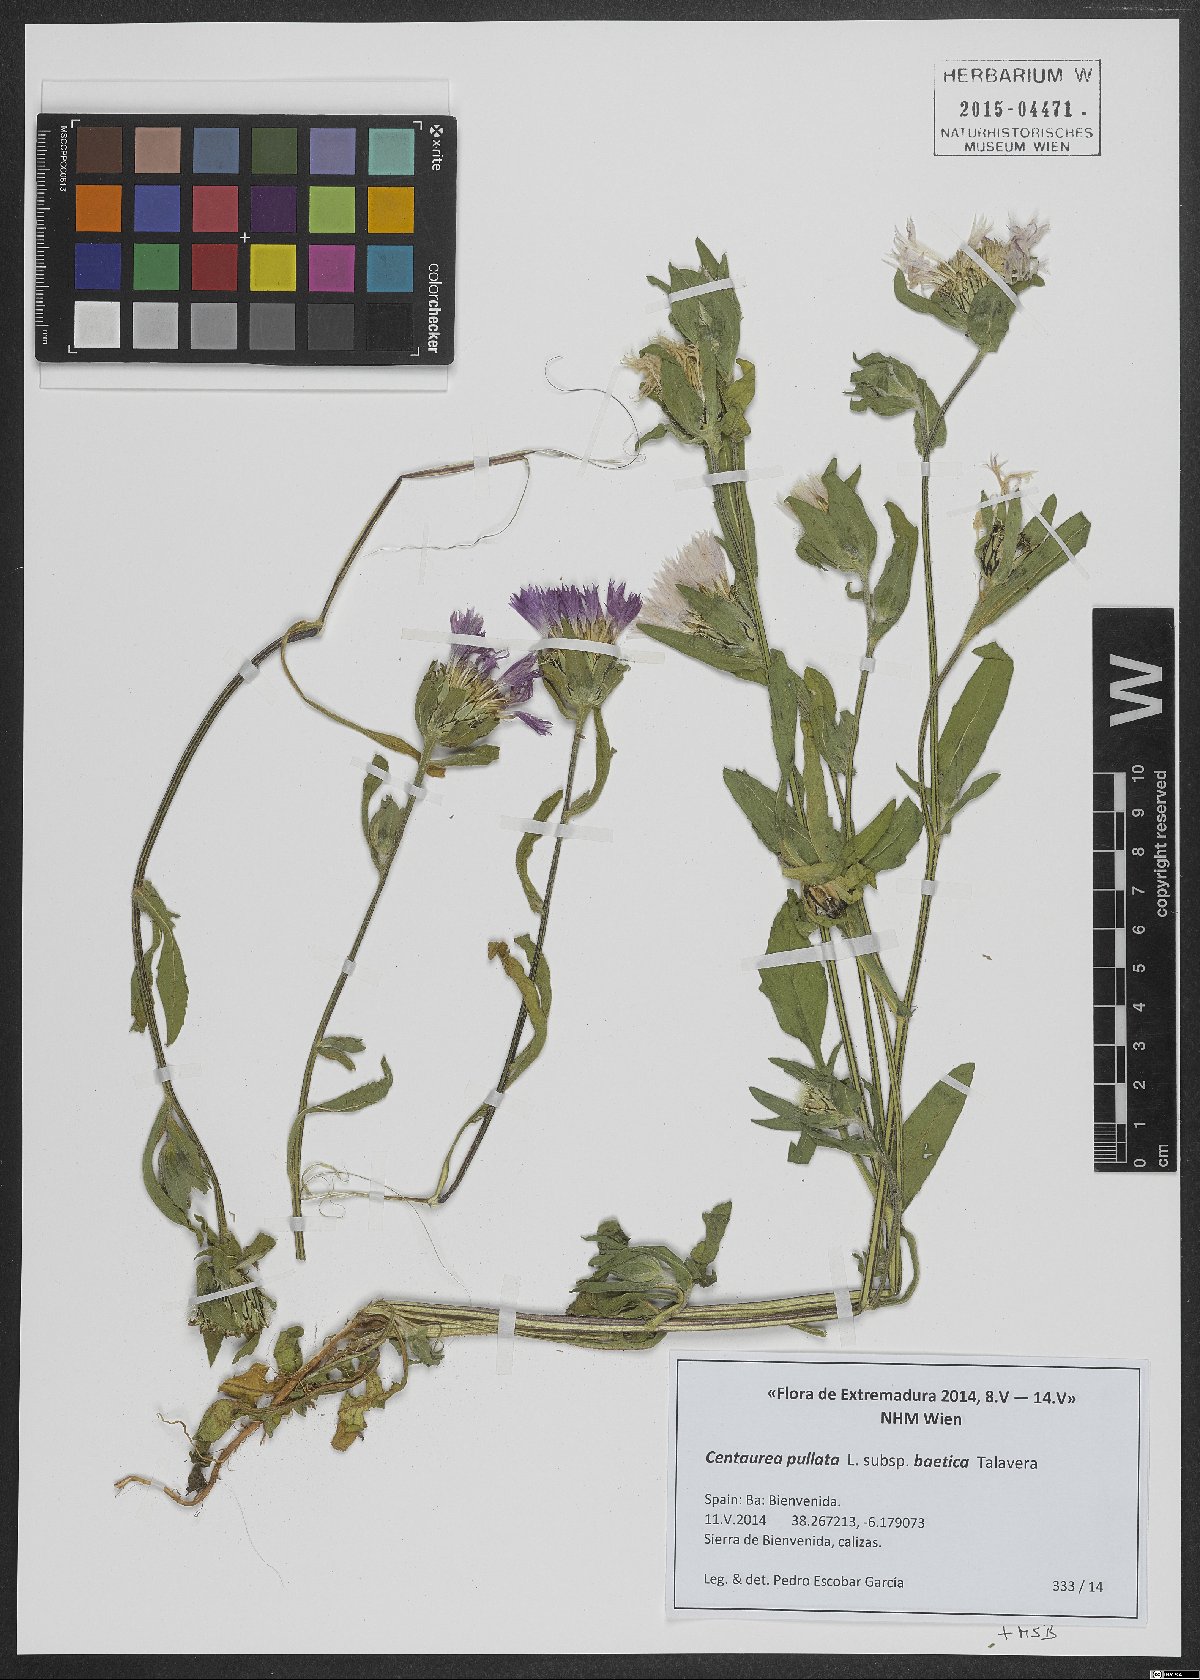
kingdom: Plantae
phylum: Tracheophyta
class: Magnoliopsida
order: Asterales
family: Asteraceae
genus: Centaurea
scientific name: Centaurea pullata
